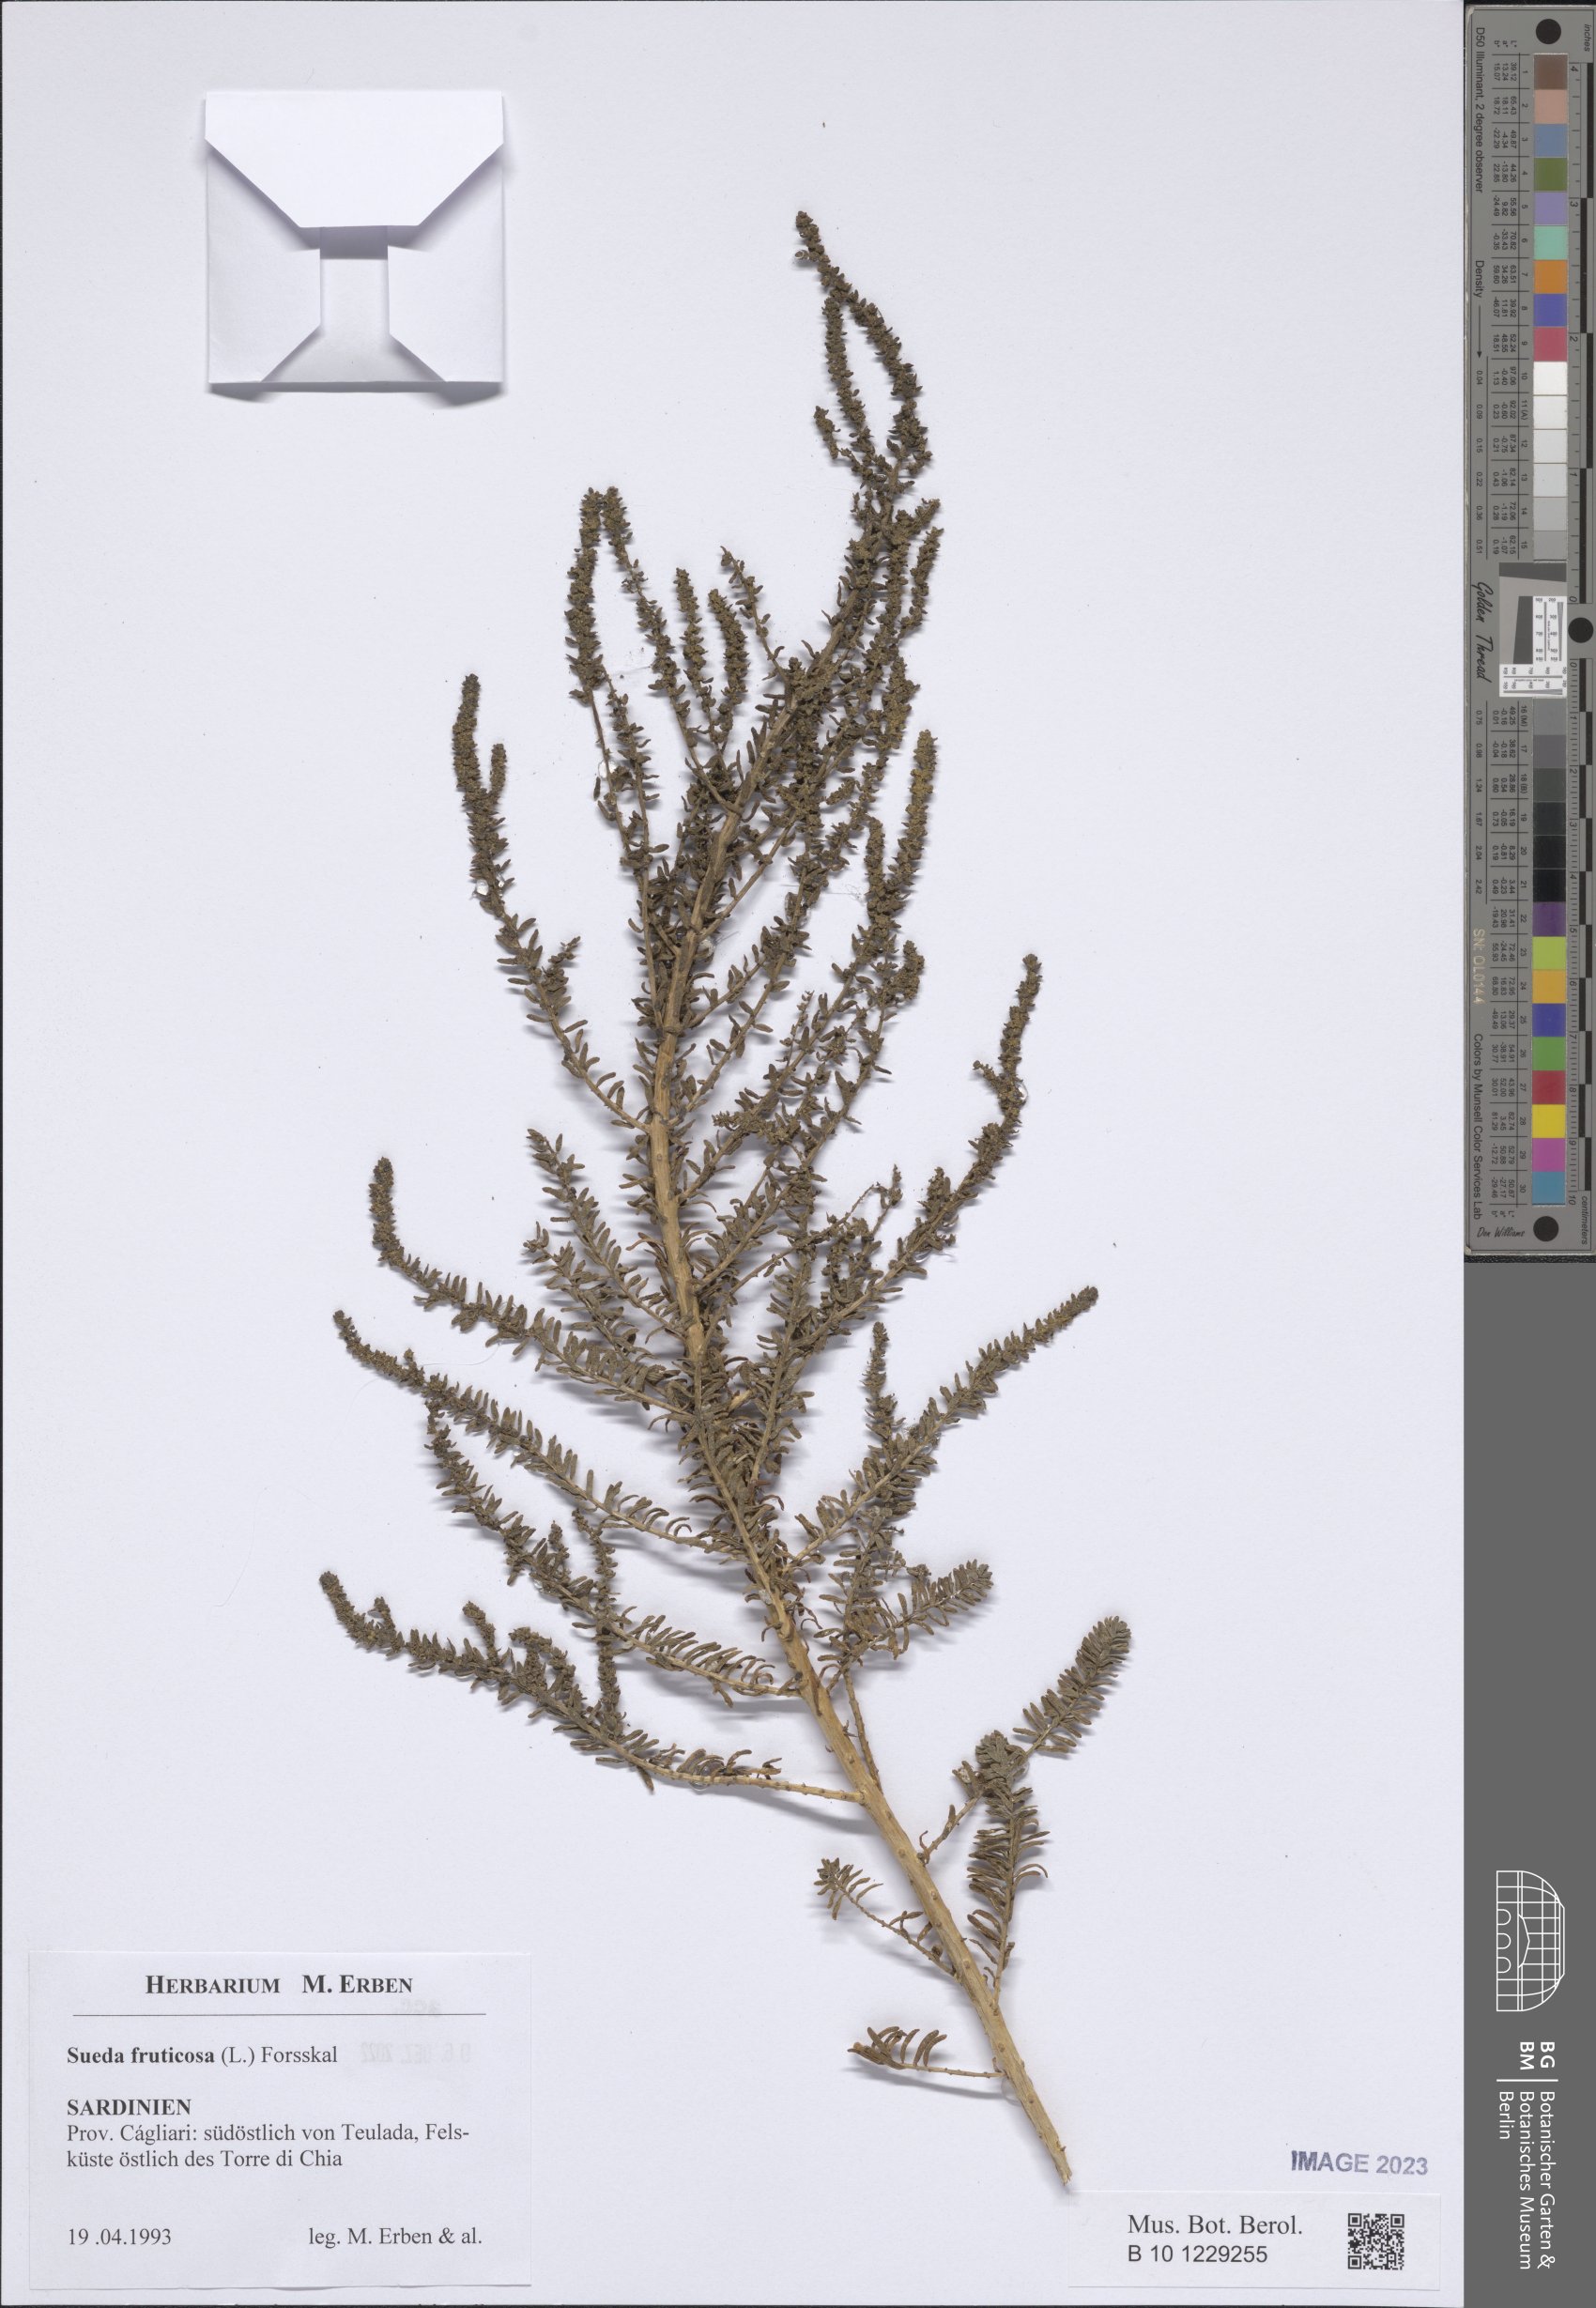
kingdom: Plantae
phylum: Tracheophyta
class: Magnoliopsida
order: Caryophyllales
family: Amaranthaceae
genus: Suaeda
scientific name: Suaeda fruticosa
